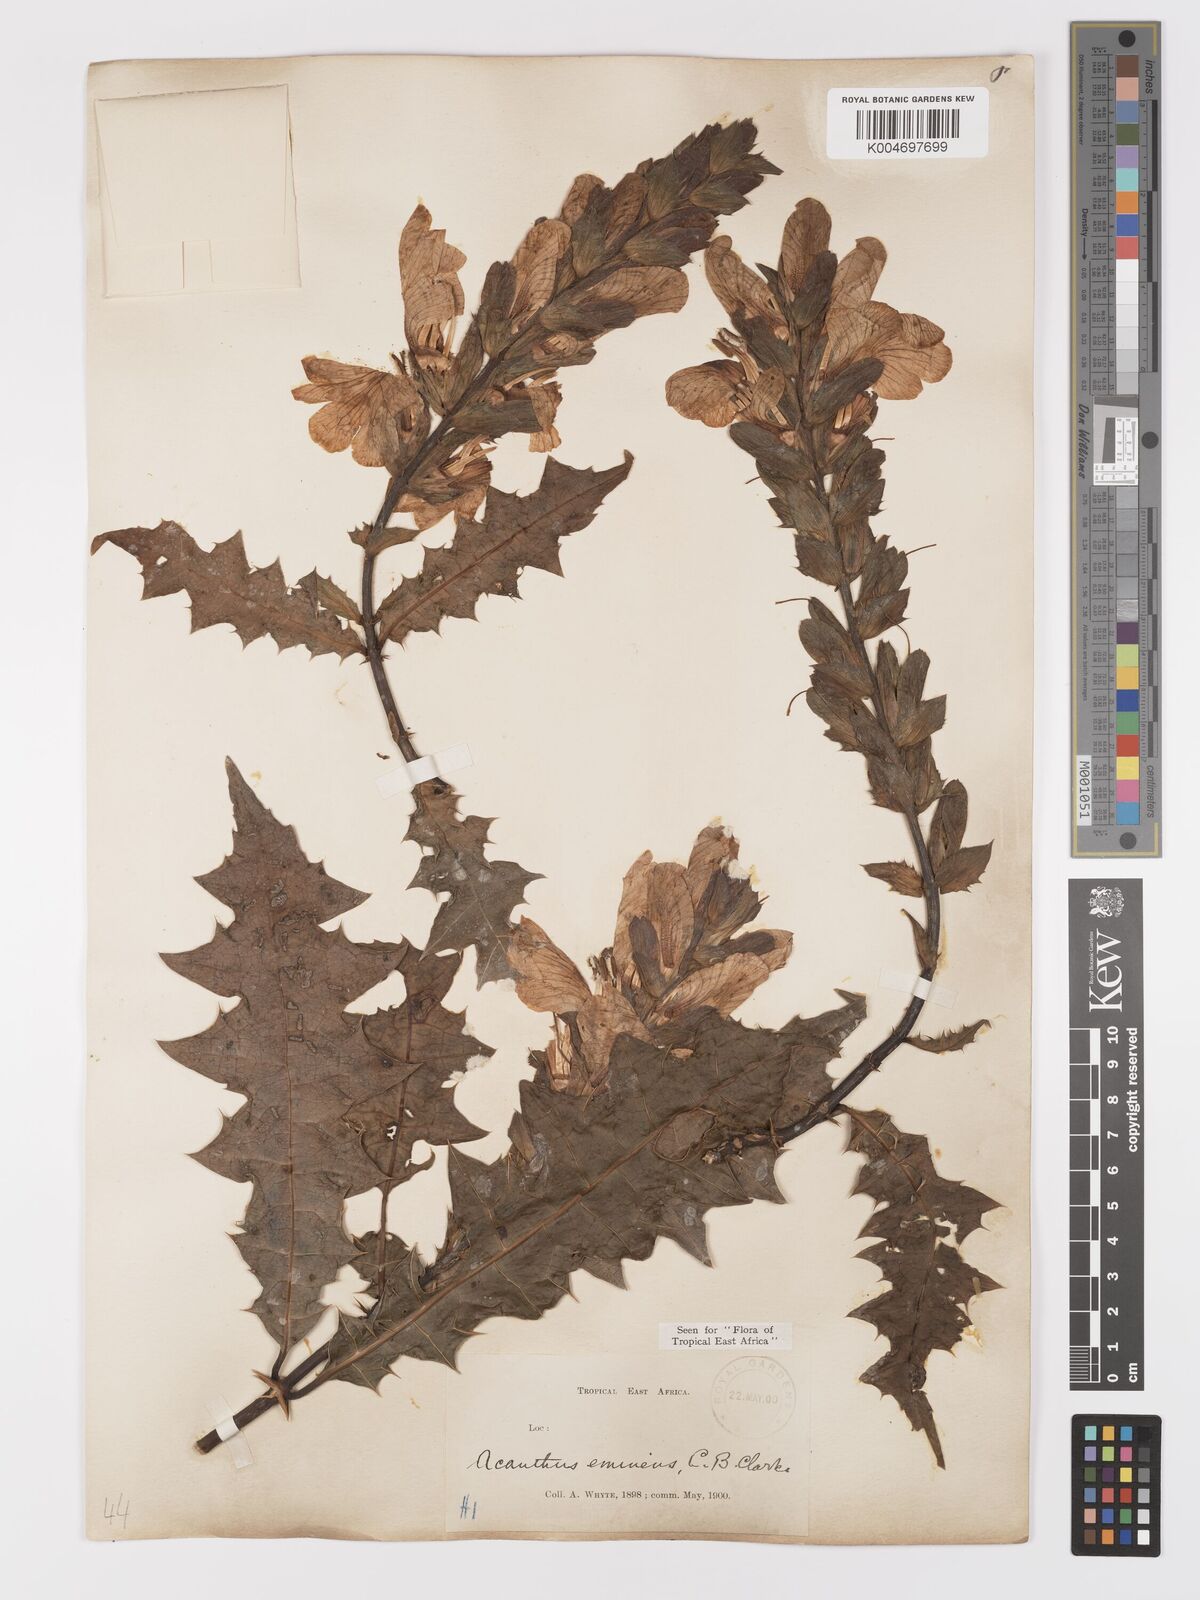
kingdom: Plantae
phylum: Tracheophyta
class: Magnoliopsida
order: Lamiales
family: Acanthaceae
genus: Acanthus
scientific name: Acanthus eminens
